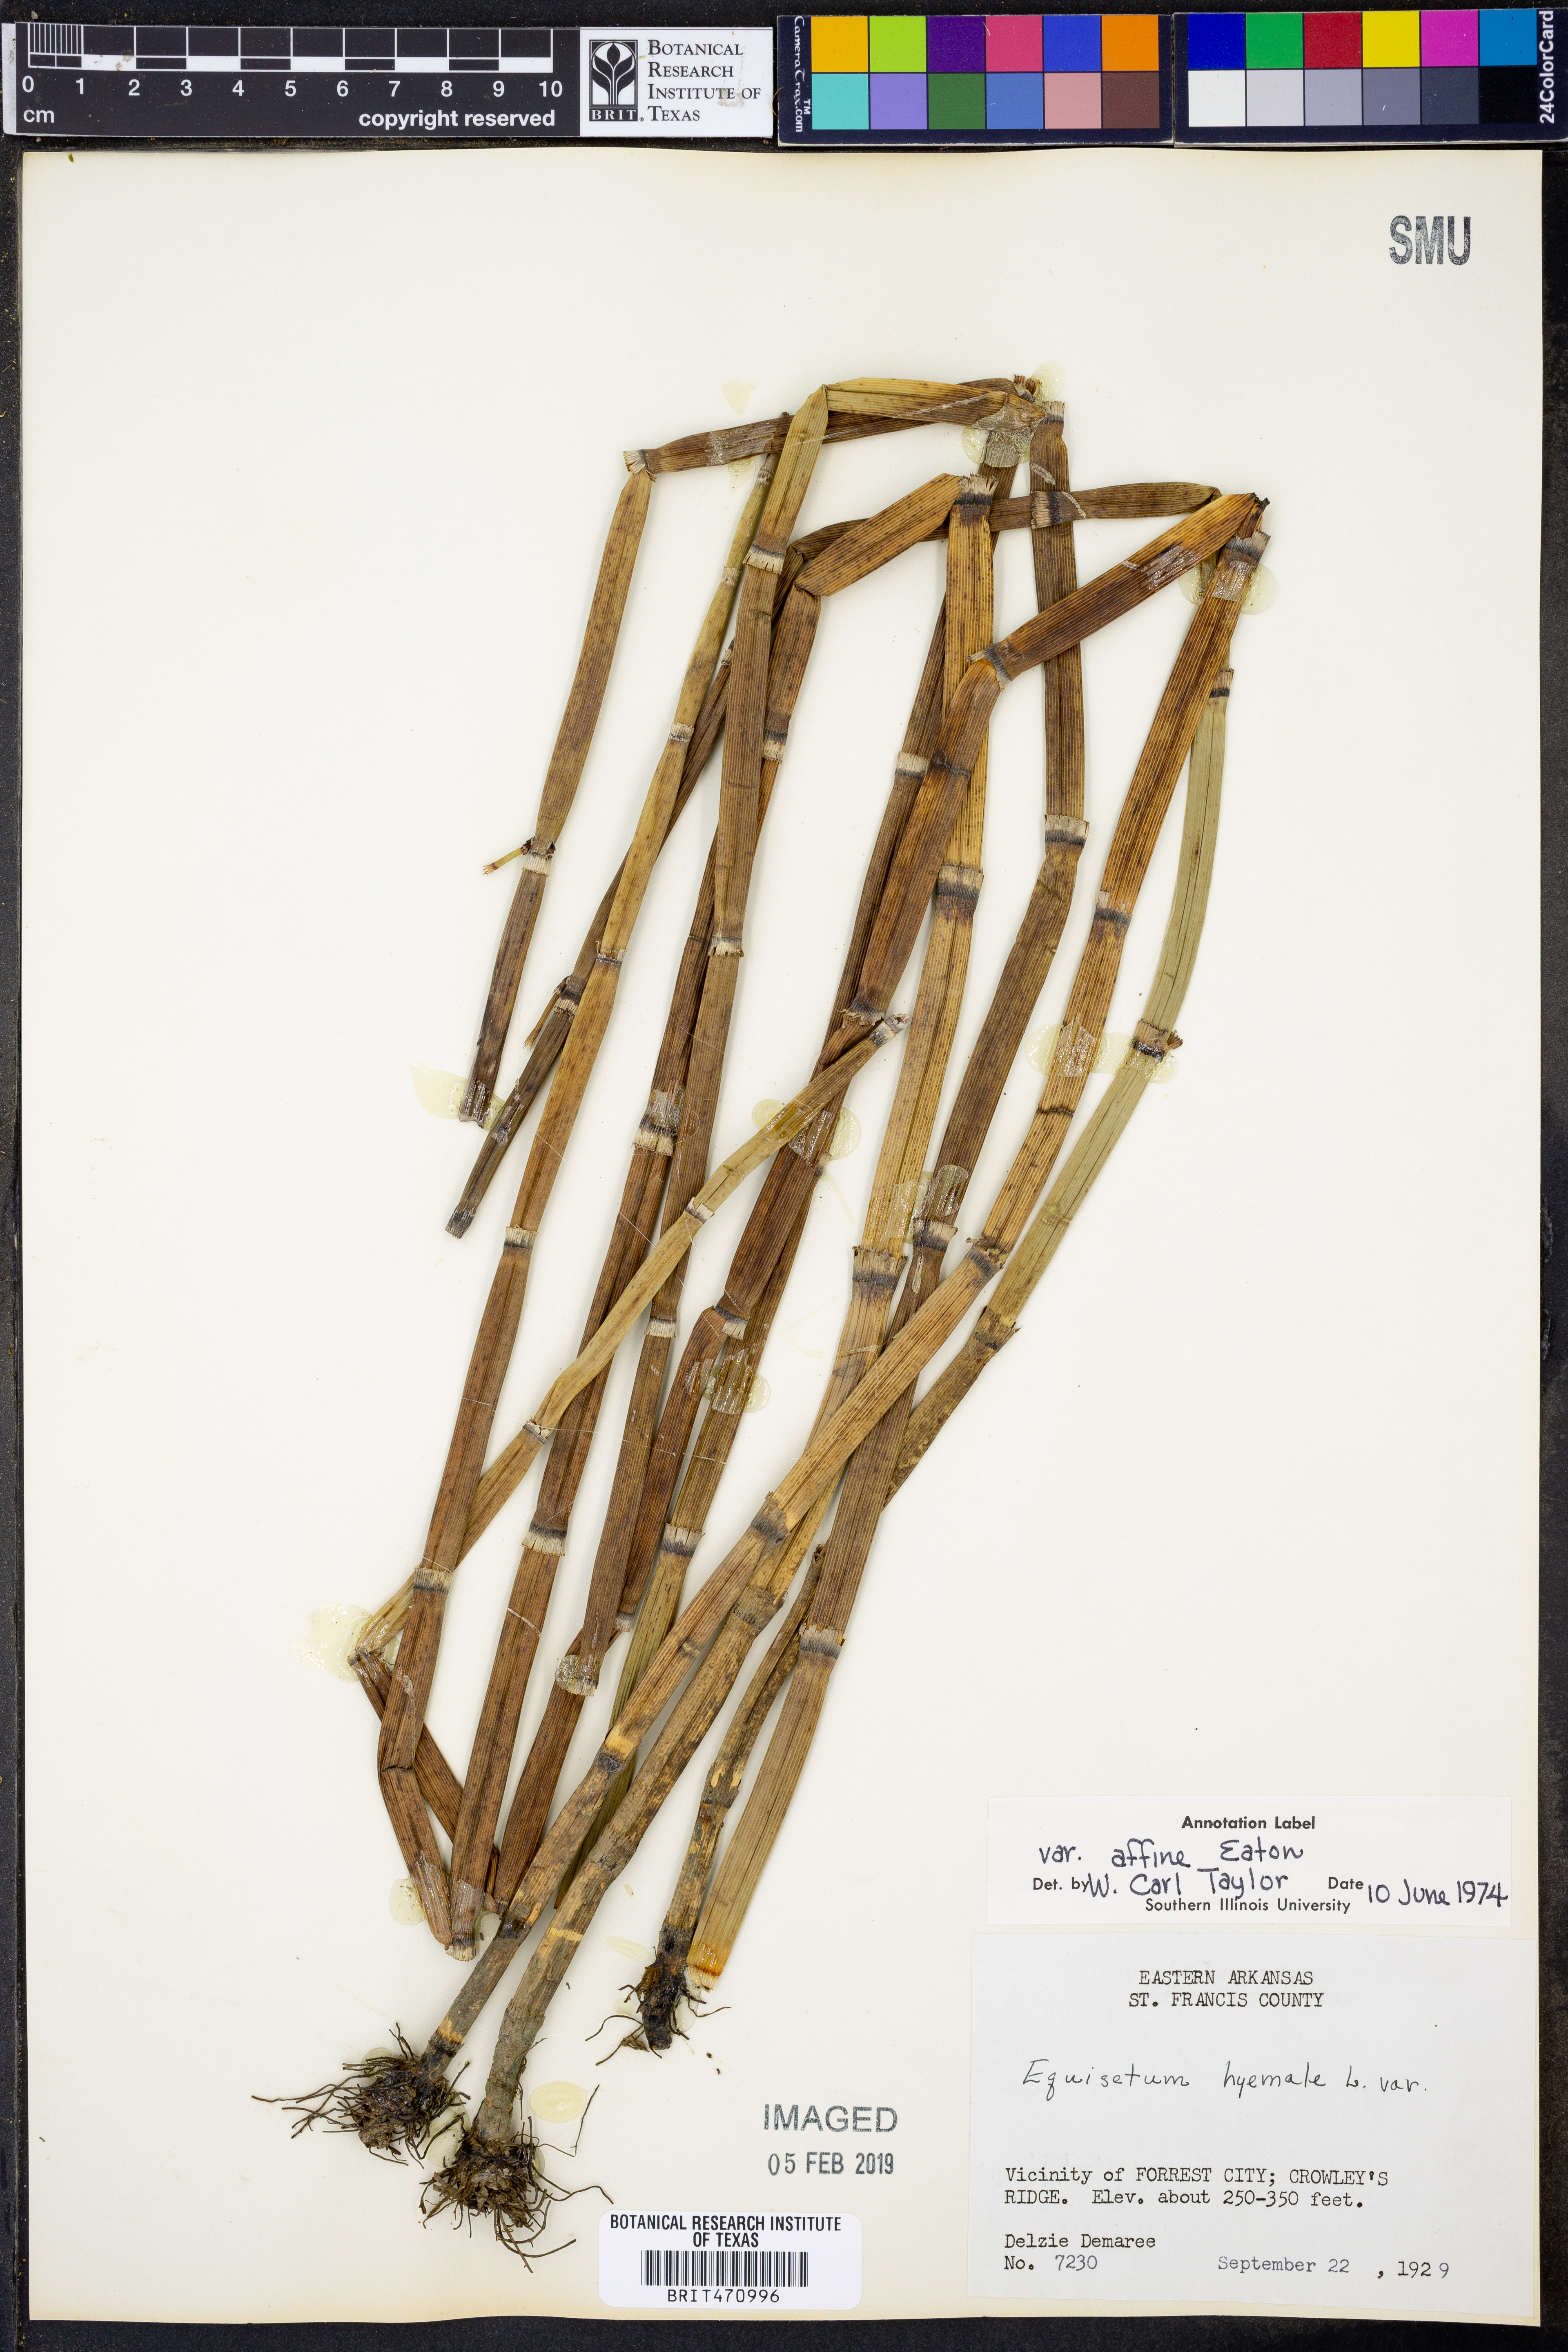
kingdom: Plantae
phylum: Tracheophyta
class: Polypodiopsida
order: Equisetales
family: Equisetaceae
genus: Equisetum
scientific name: Equisetum praealtum
